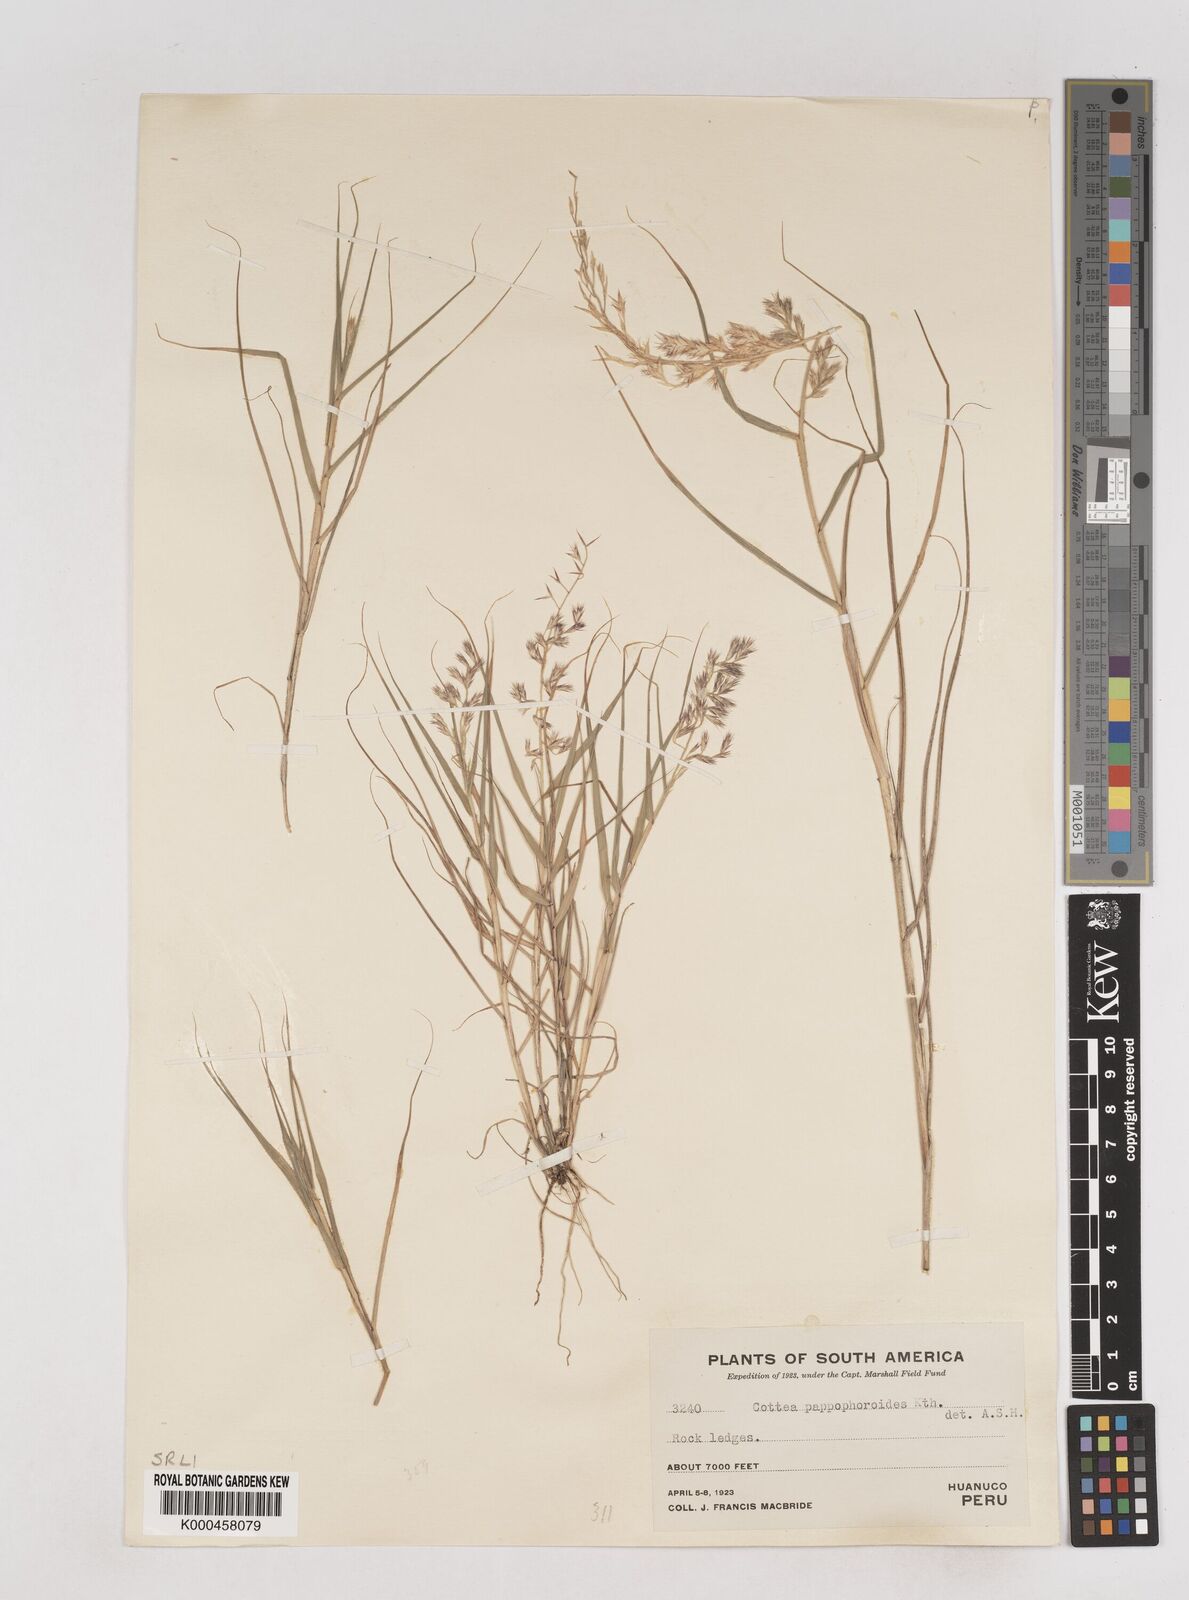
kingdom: Plantae
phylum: Tracheophyta
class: Liliopsida
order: Poales
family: Poaceae
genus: Cottea
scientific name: Cottea
